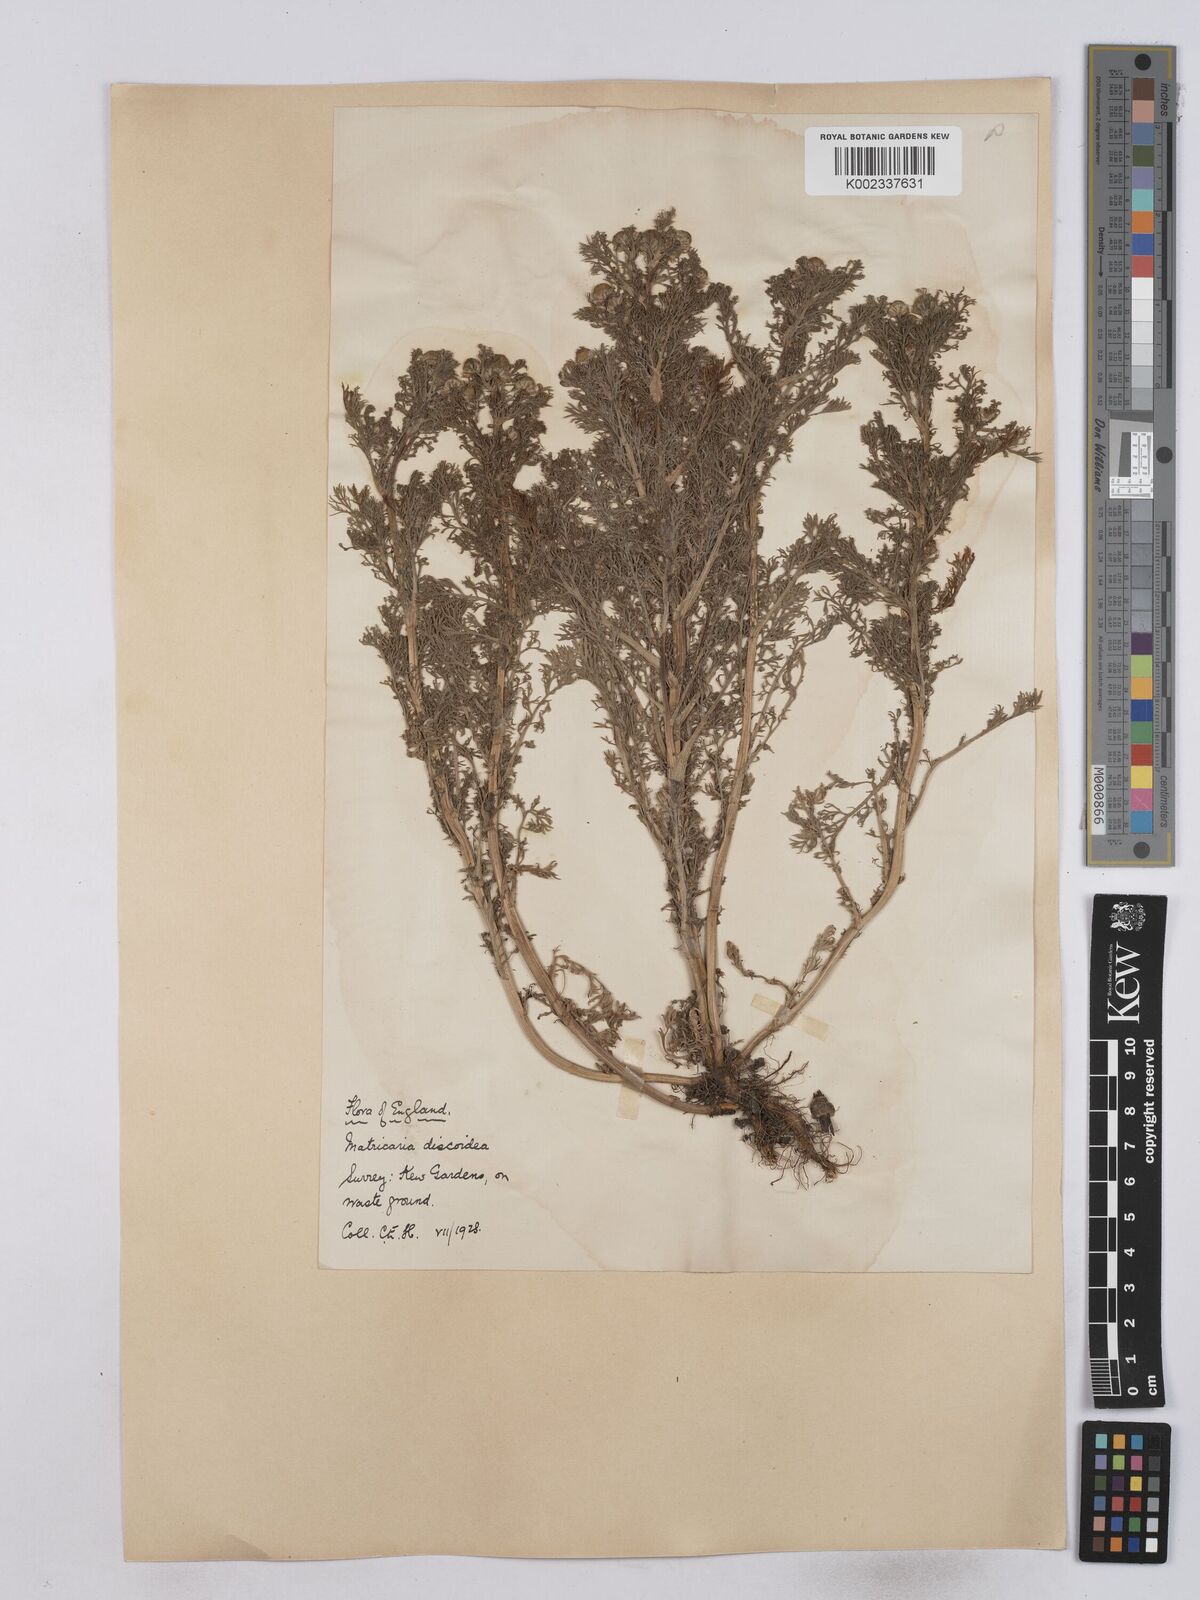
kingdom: Plantae
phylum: Tracheophyta
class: Magnoliopsida
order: Asterales
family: Asteraceae
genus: Matricaria
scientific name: Matricaria discoidea
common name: Disc mayweed
